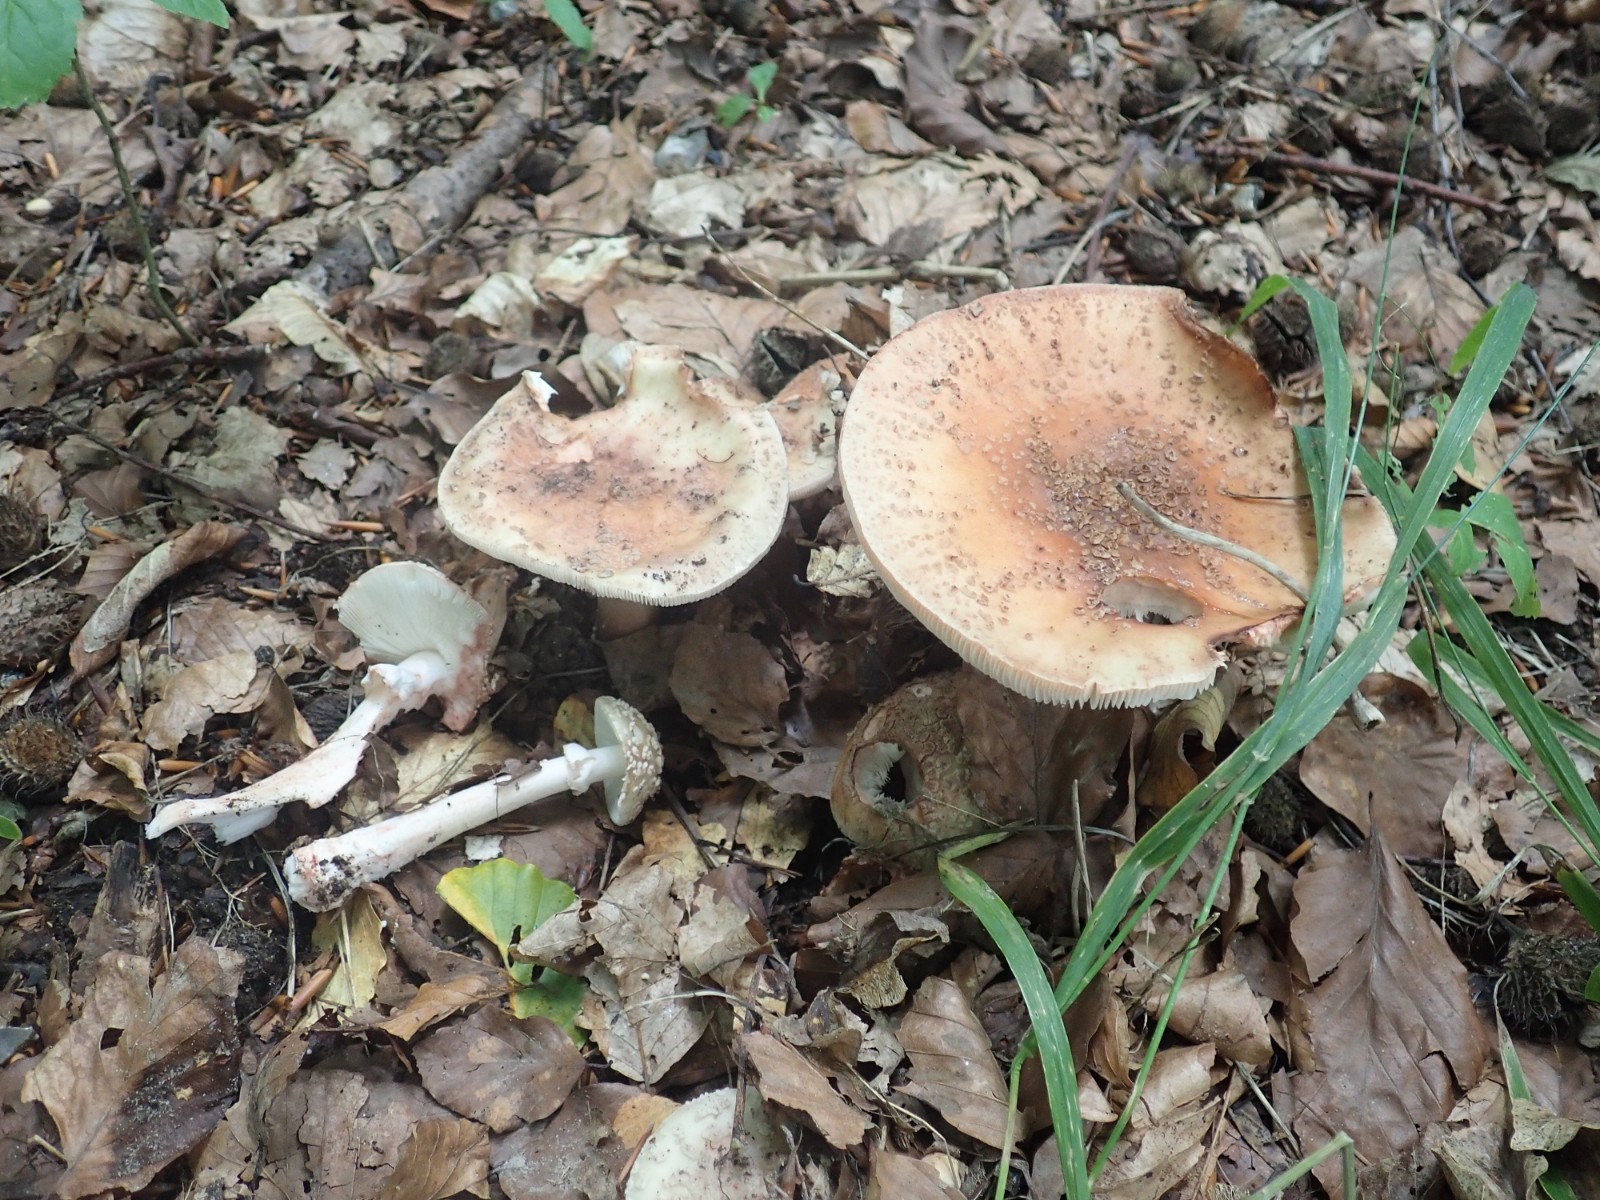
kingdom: Fungi
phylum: Basidiomycota
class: Agaricomycetes
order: Agaricales
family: Amanitaceae
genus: Amanita
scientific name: Amanita rubescens
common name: rødmende fluesvamp
